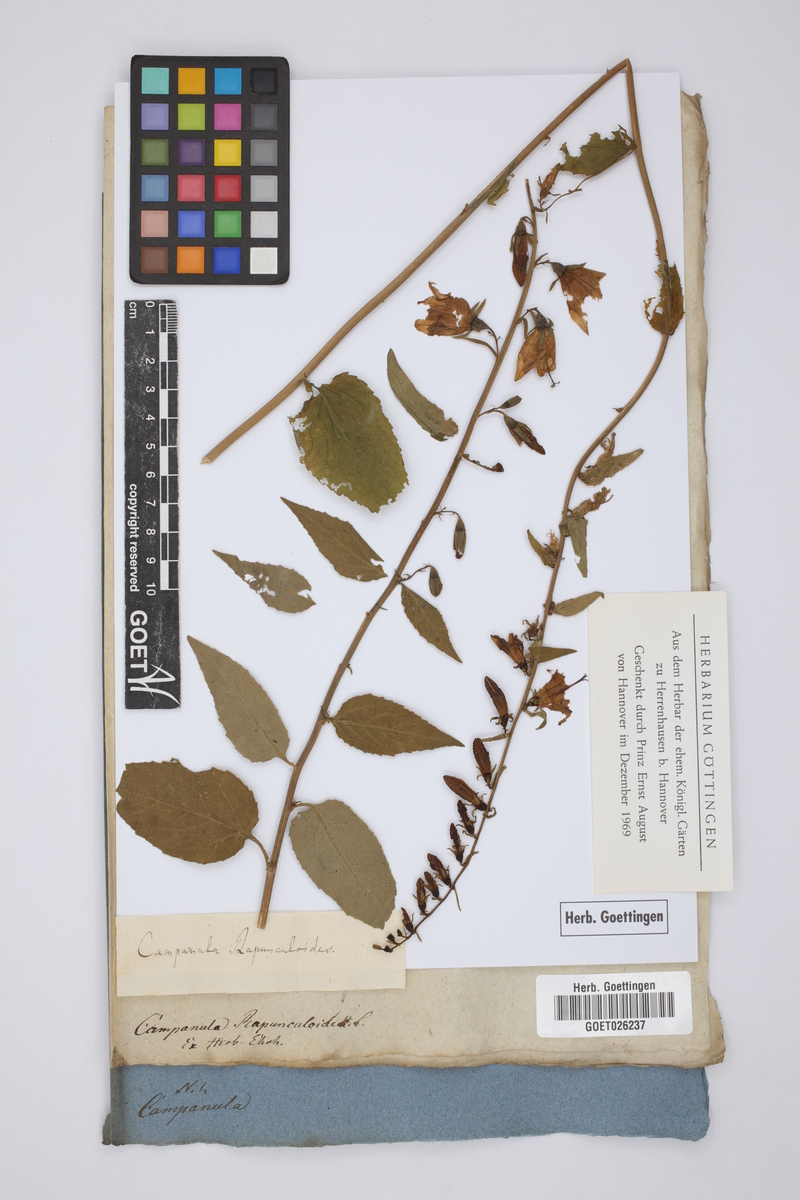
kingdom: Plantae
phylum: Tracheophyta
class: Magnoliopsida
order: Asterales
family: Campanulaceae
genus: Campanula
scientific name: Campanula rapunculoides
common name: Creeping bellflower
